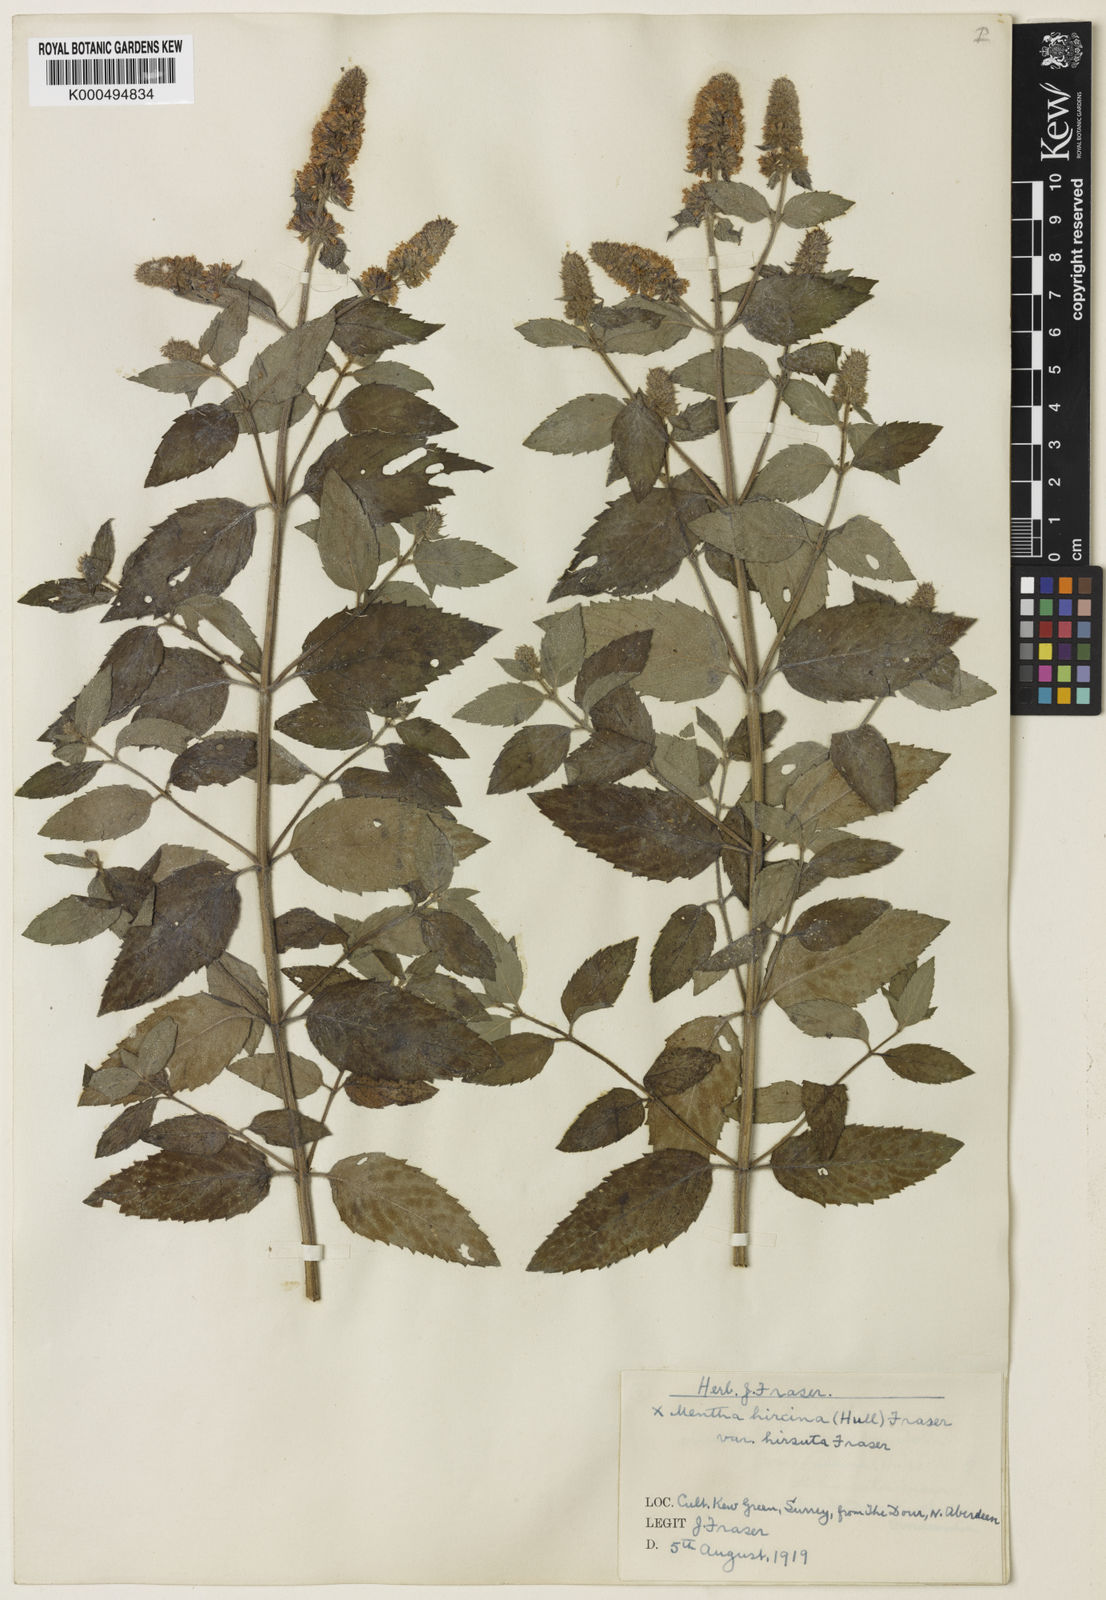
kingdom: Plantae
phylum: Tracheophyta
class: Magnoliopsida
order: Lamiales
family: Lamiaceae
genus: Mentha
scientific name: Mentha piperita
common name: Peppermint
